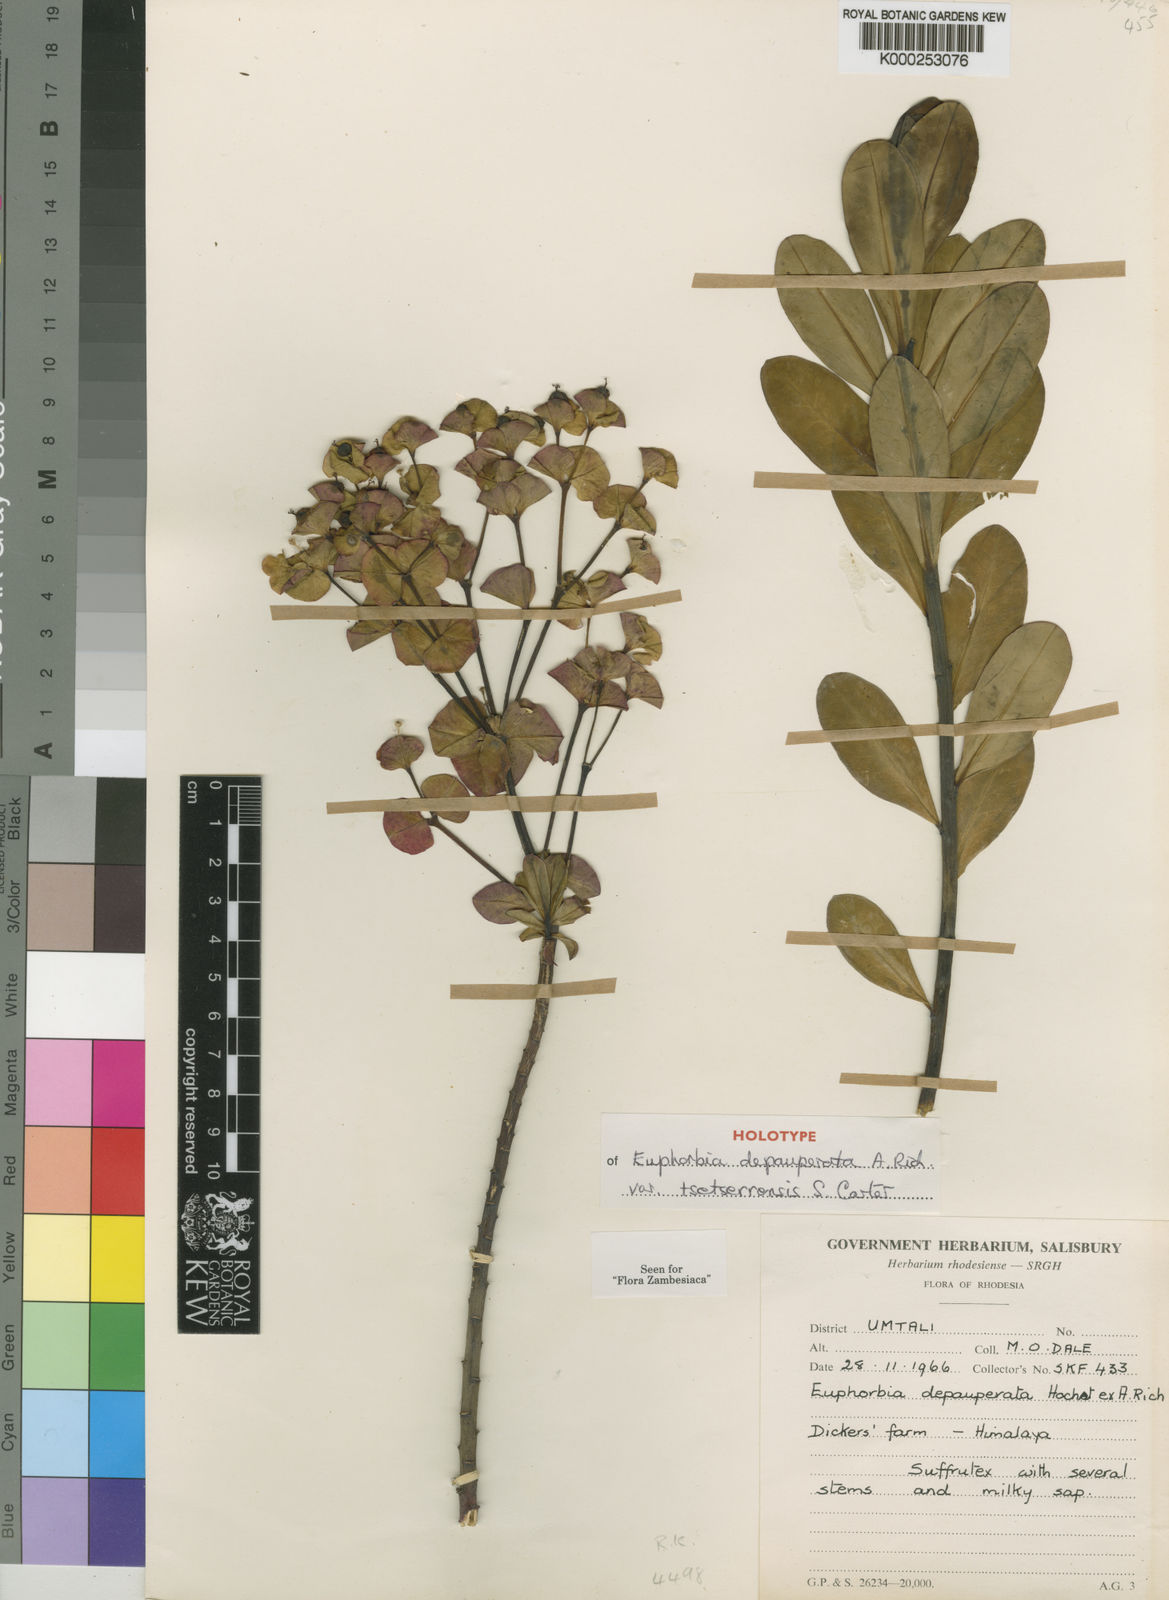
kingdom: Plantae
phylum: Tracheophyta
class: Magnoliopsida
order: Malpighiales
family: Euphorbiaceae
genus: Euphorbia
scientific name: Euphorbia depauperata
